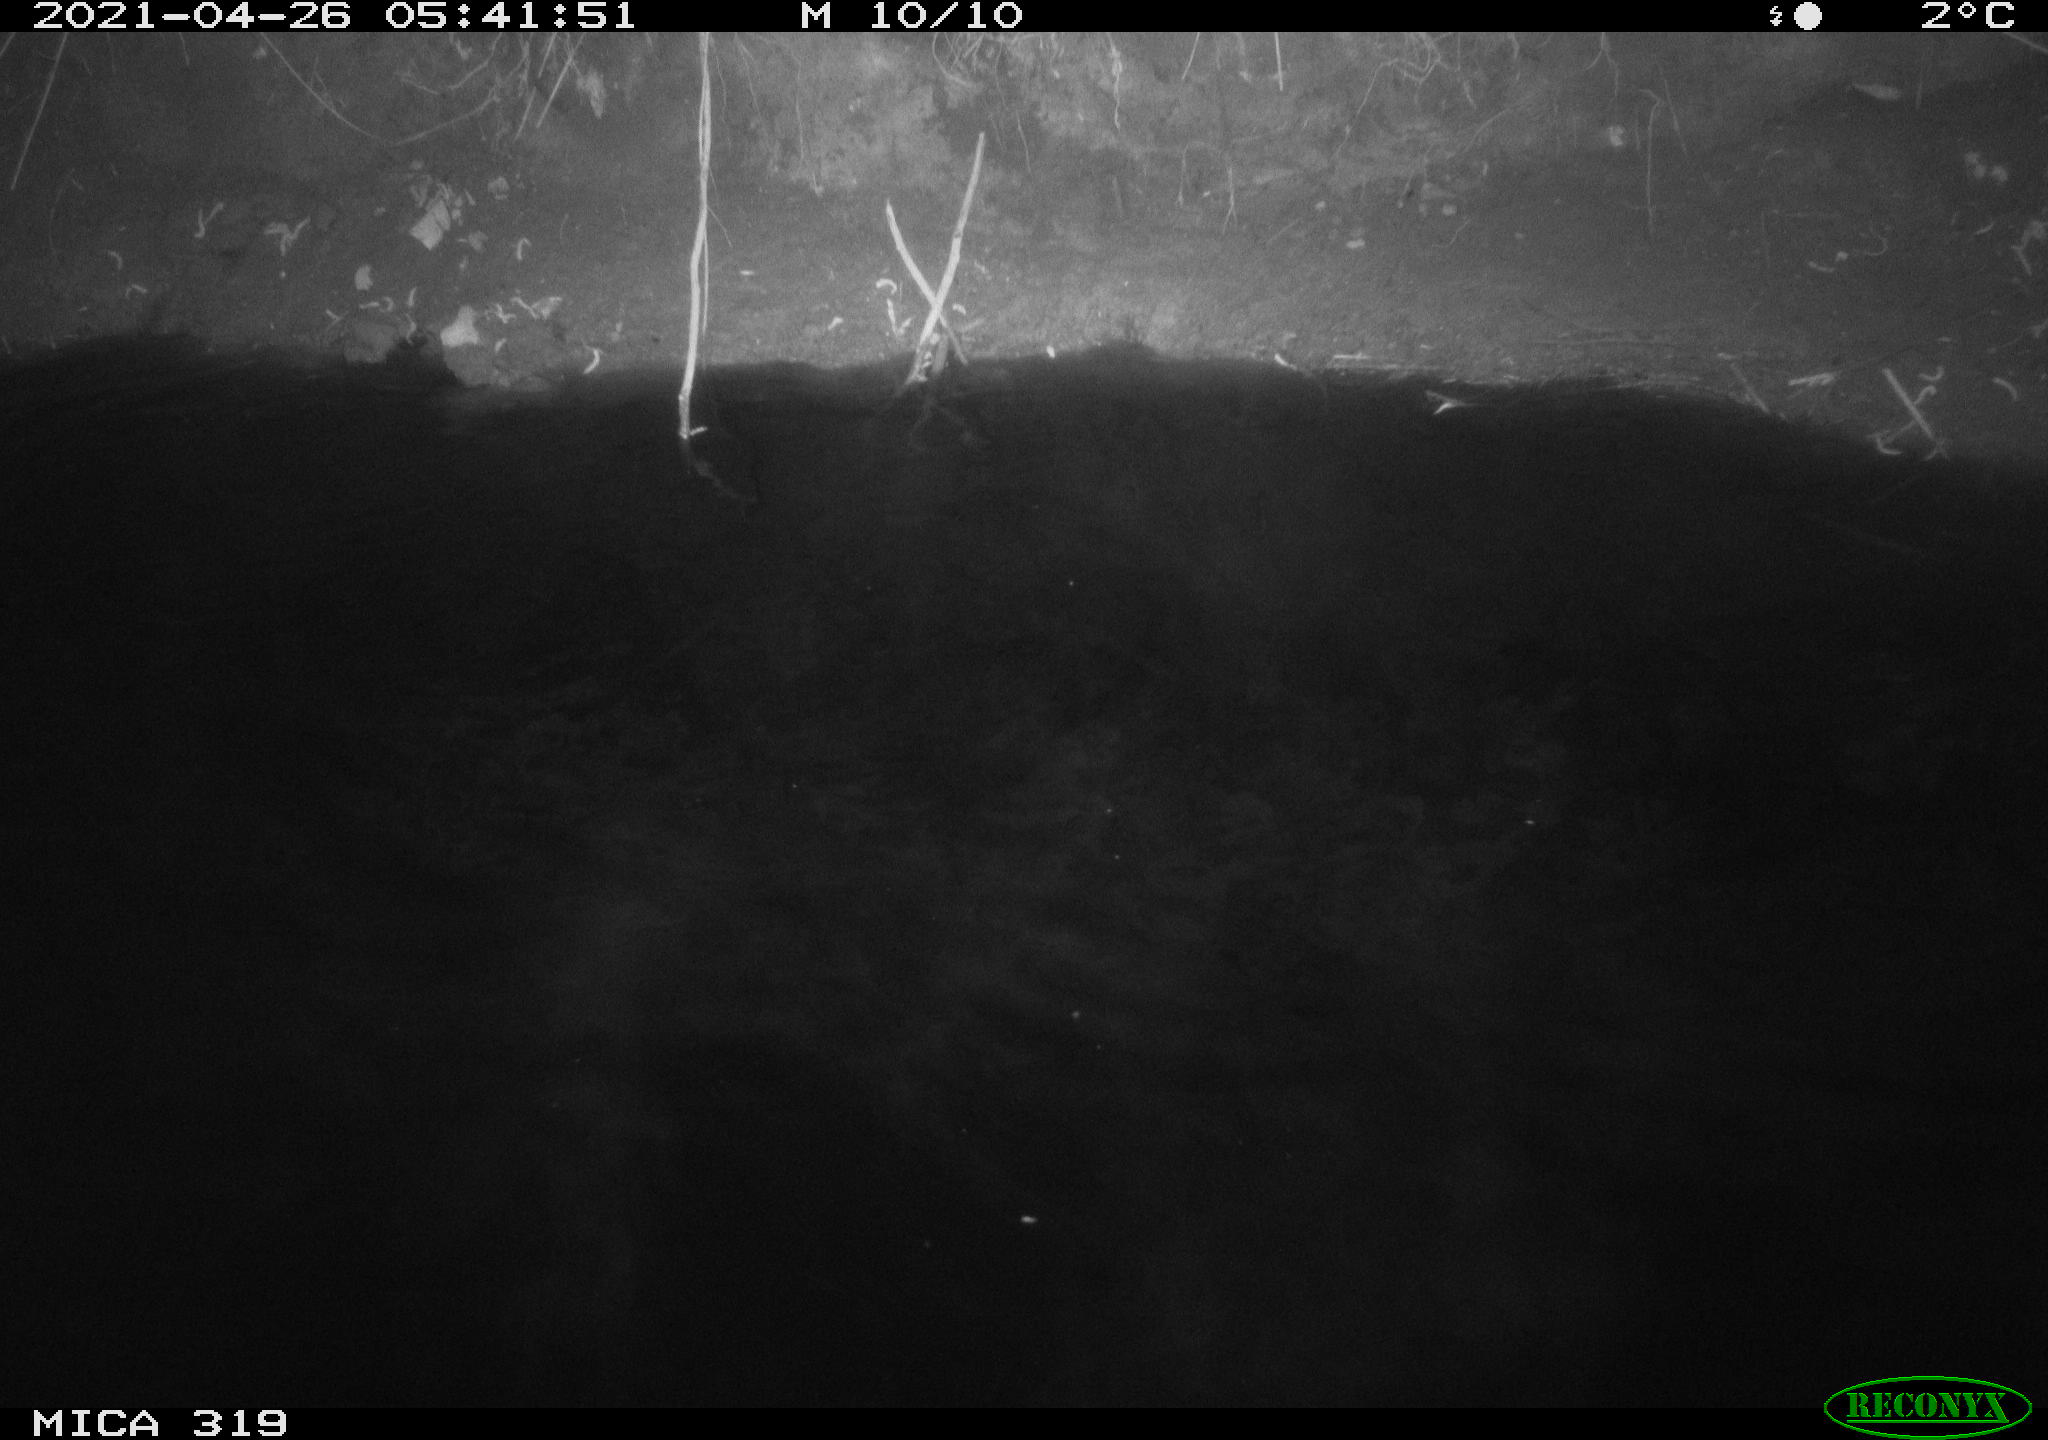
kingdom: Animalia
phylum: Chordata
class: Aves
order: Anseriformes
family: Anatidae
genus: Anas
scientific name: Anas platyrhynchos
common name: Mallard
